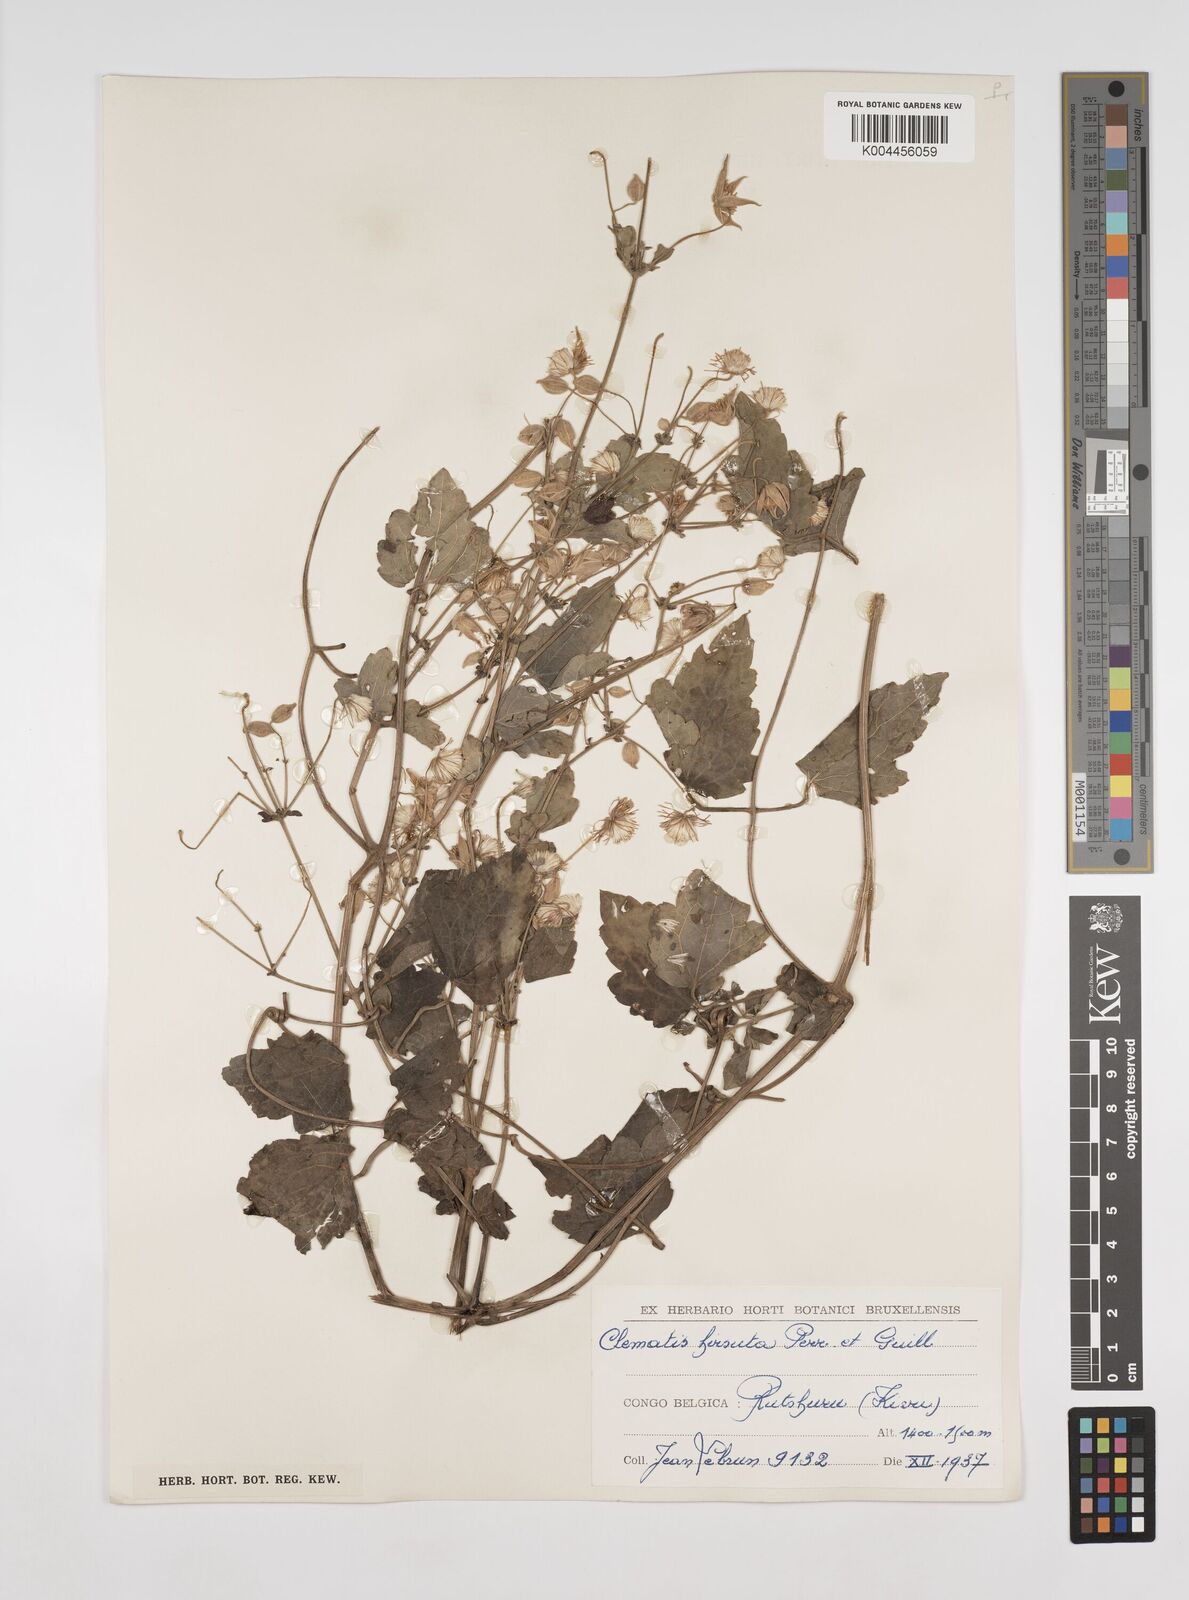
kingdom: Plantae
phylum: Tracheophyta
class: Magnoliopsida
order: Ranunculales
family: Ranunculaceae
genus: Clematis
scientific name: Clematis hirsuta
